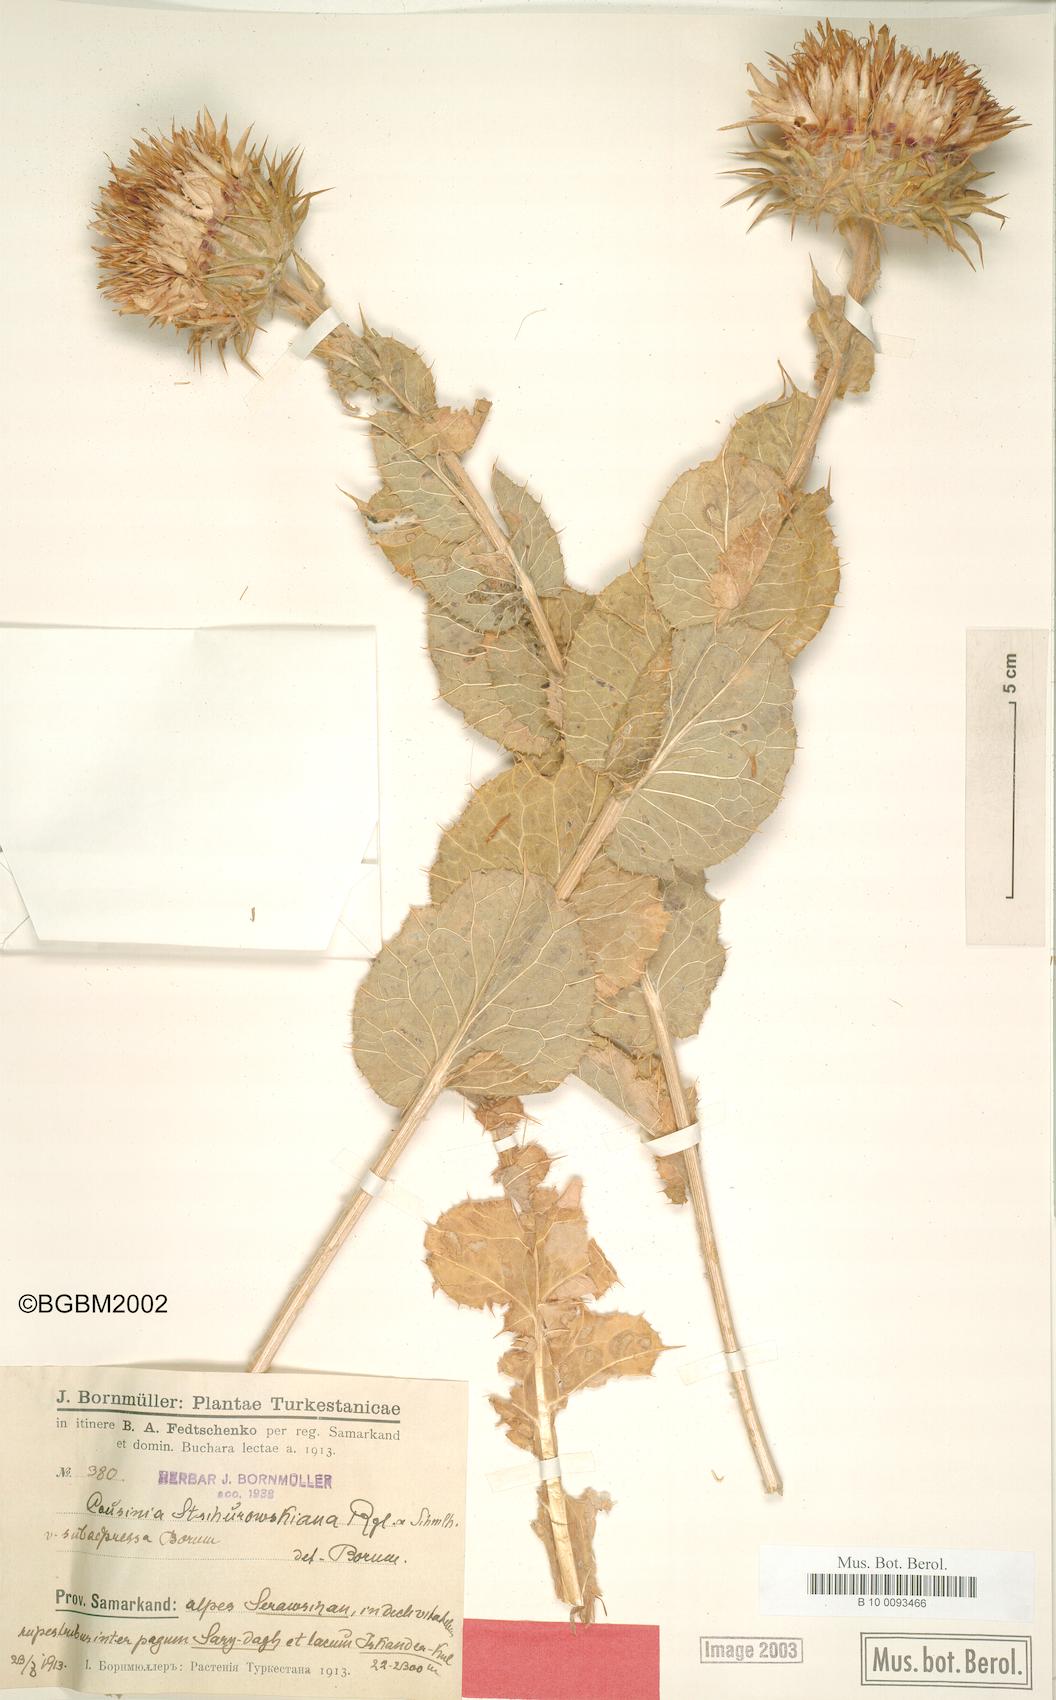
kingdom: Plantae
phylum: Tracheophyta
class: Magnoliopsida
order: Asterales
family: Asteraceae
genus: Cousinia
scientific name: Cousinia princeps
